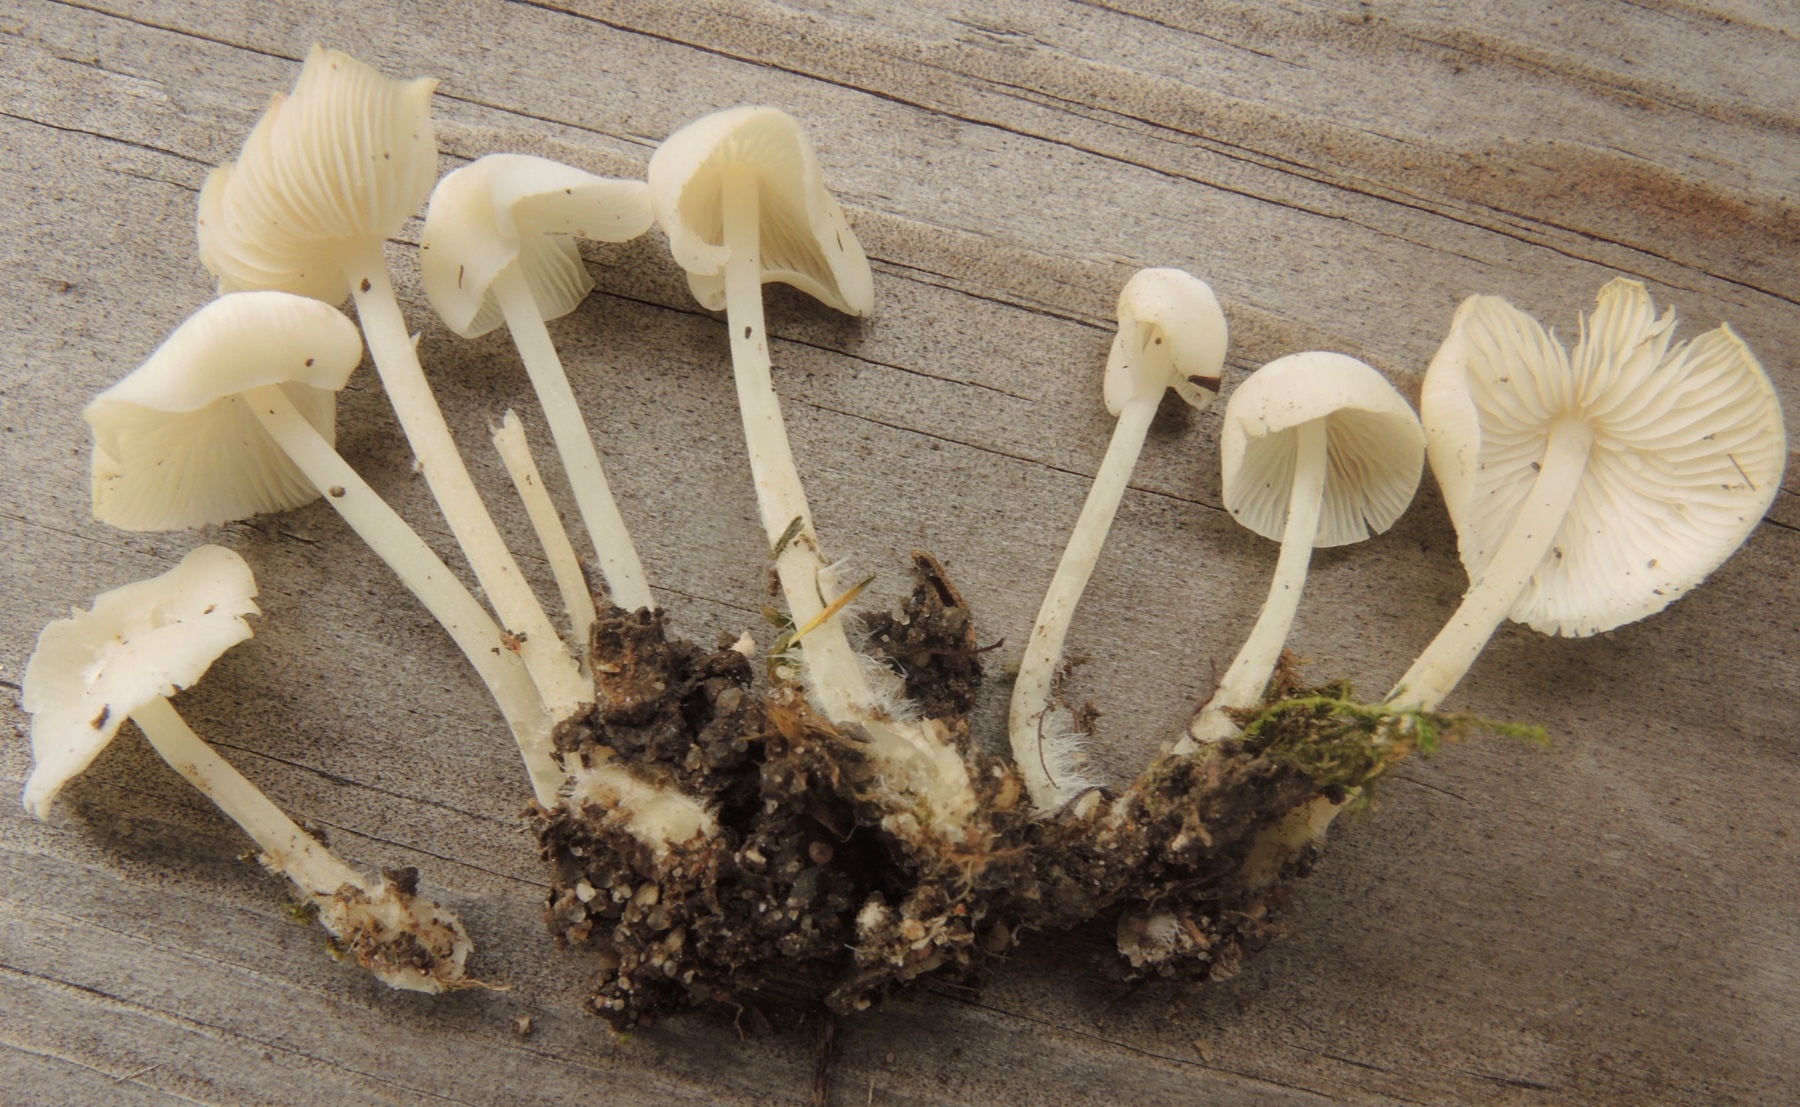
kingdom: Fungi
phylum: Basidiomycota
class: Agaricomycetes
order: Agaricales
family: Mycenaceae
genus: Hemimycena
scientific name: Hemimycena cucullata
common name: tætbladet huesvamp
